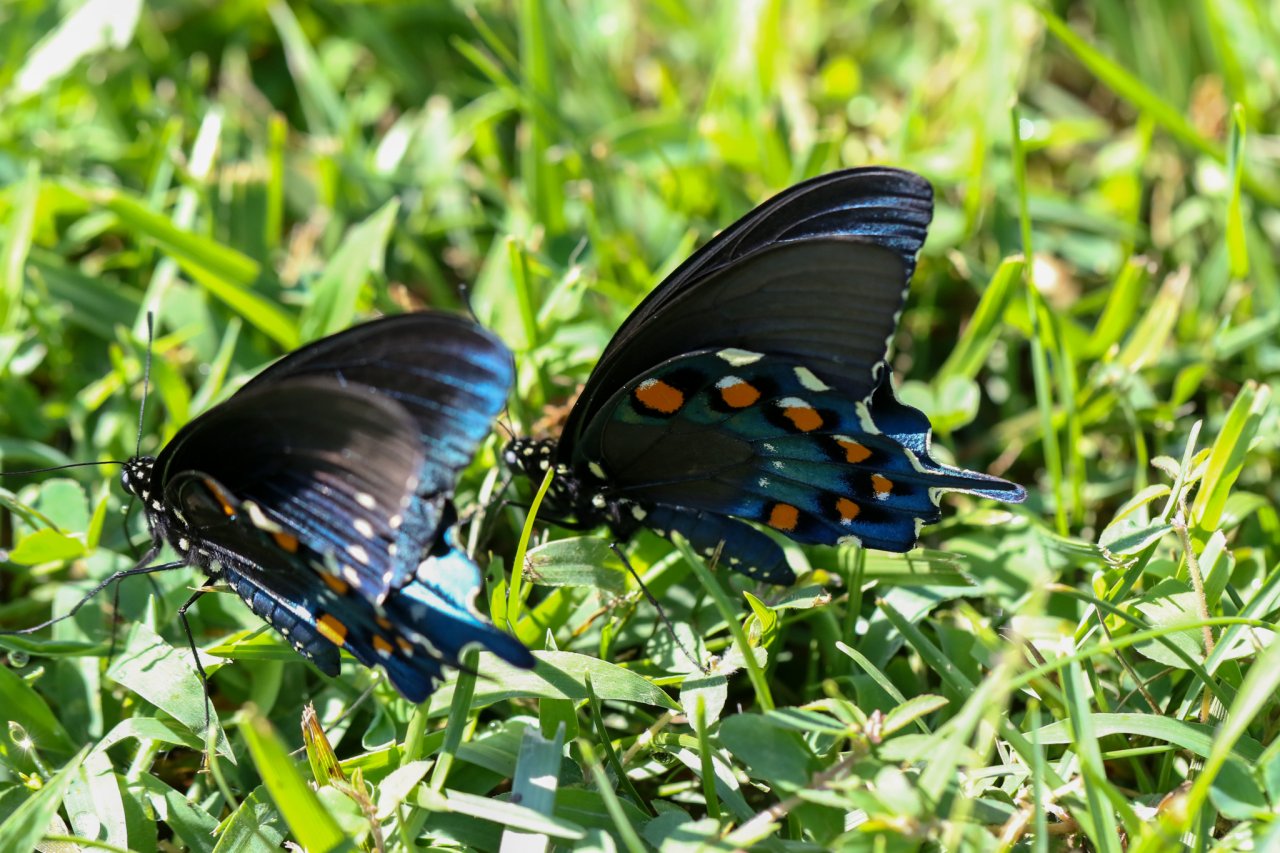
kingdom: Animalia
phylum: Arthropoda
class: Insecta
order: Lepidoptera
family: Papilionidae
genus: Battus
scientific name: Battus philenor
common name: Pipevine Swallowtail
